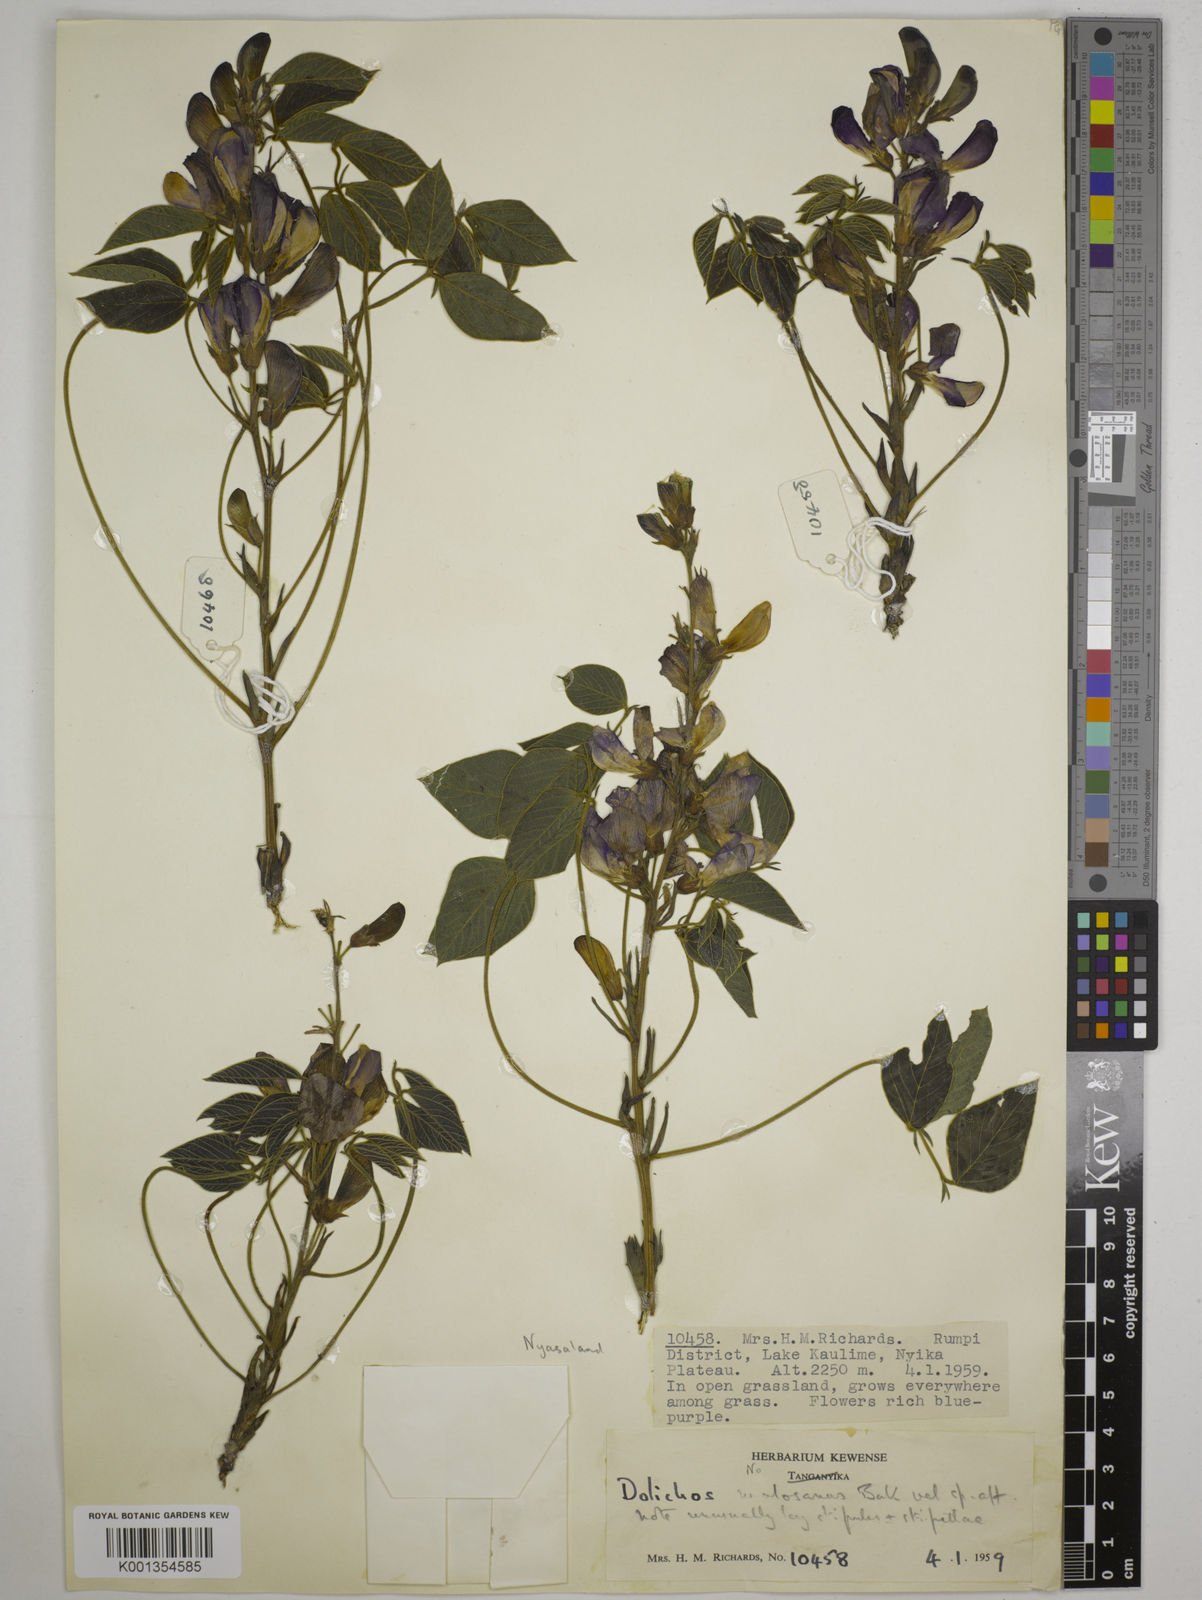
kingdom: Plantae
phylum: Tracheophyta
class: Magnoliopsida
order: Fabales
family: Fabaceae
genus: Dolichos
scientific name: Dolichos kilimandscharicus
